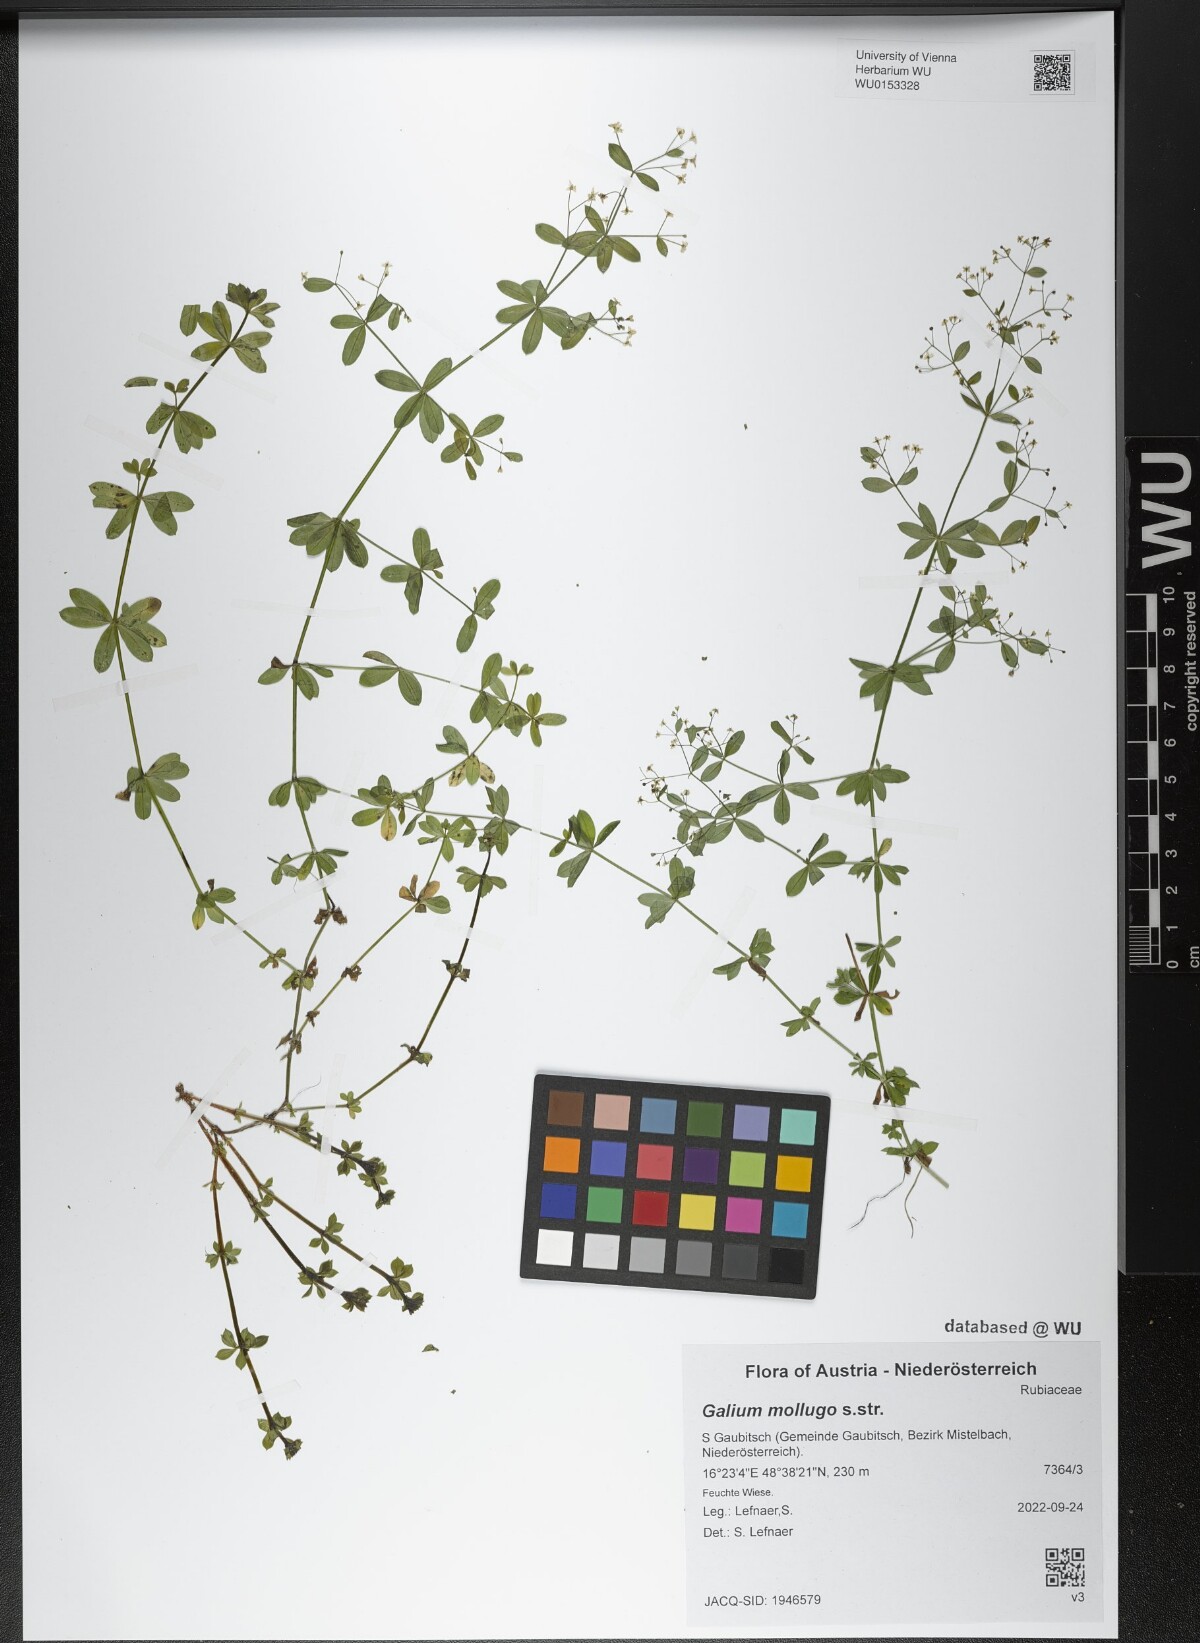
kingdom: Plantae
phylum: Tracheophyta
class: Magnoliopsida
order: Gentianales
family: Rubiaceae
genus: Galium
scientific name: Galium mollugo
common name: Hedge bedstraw
